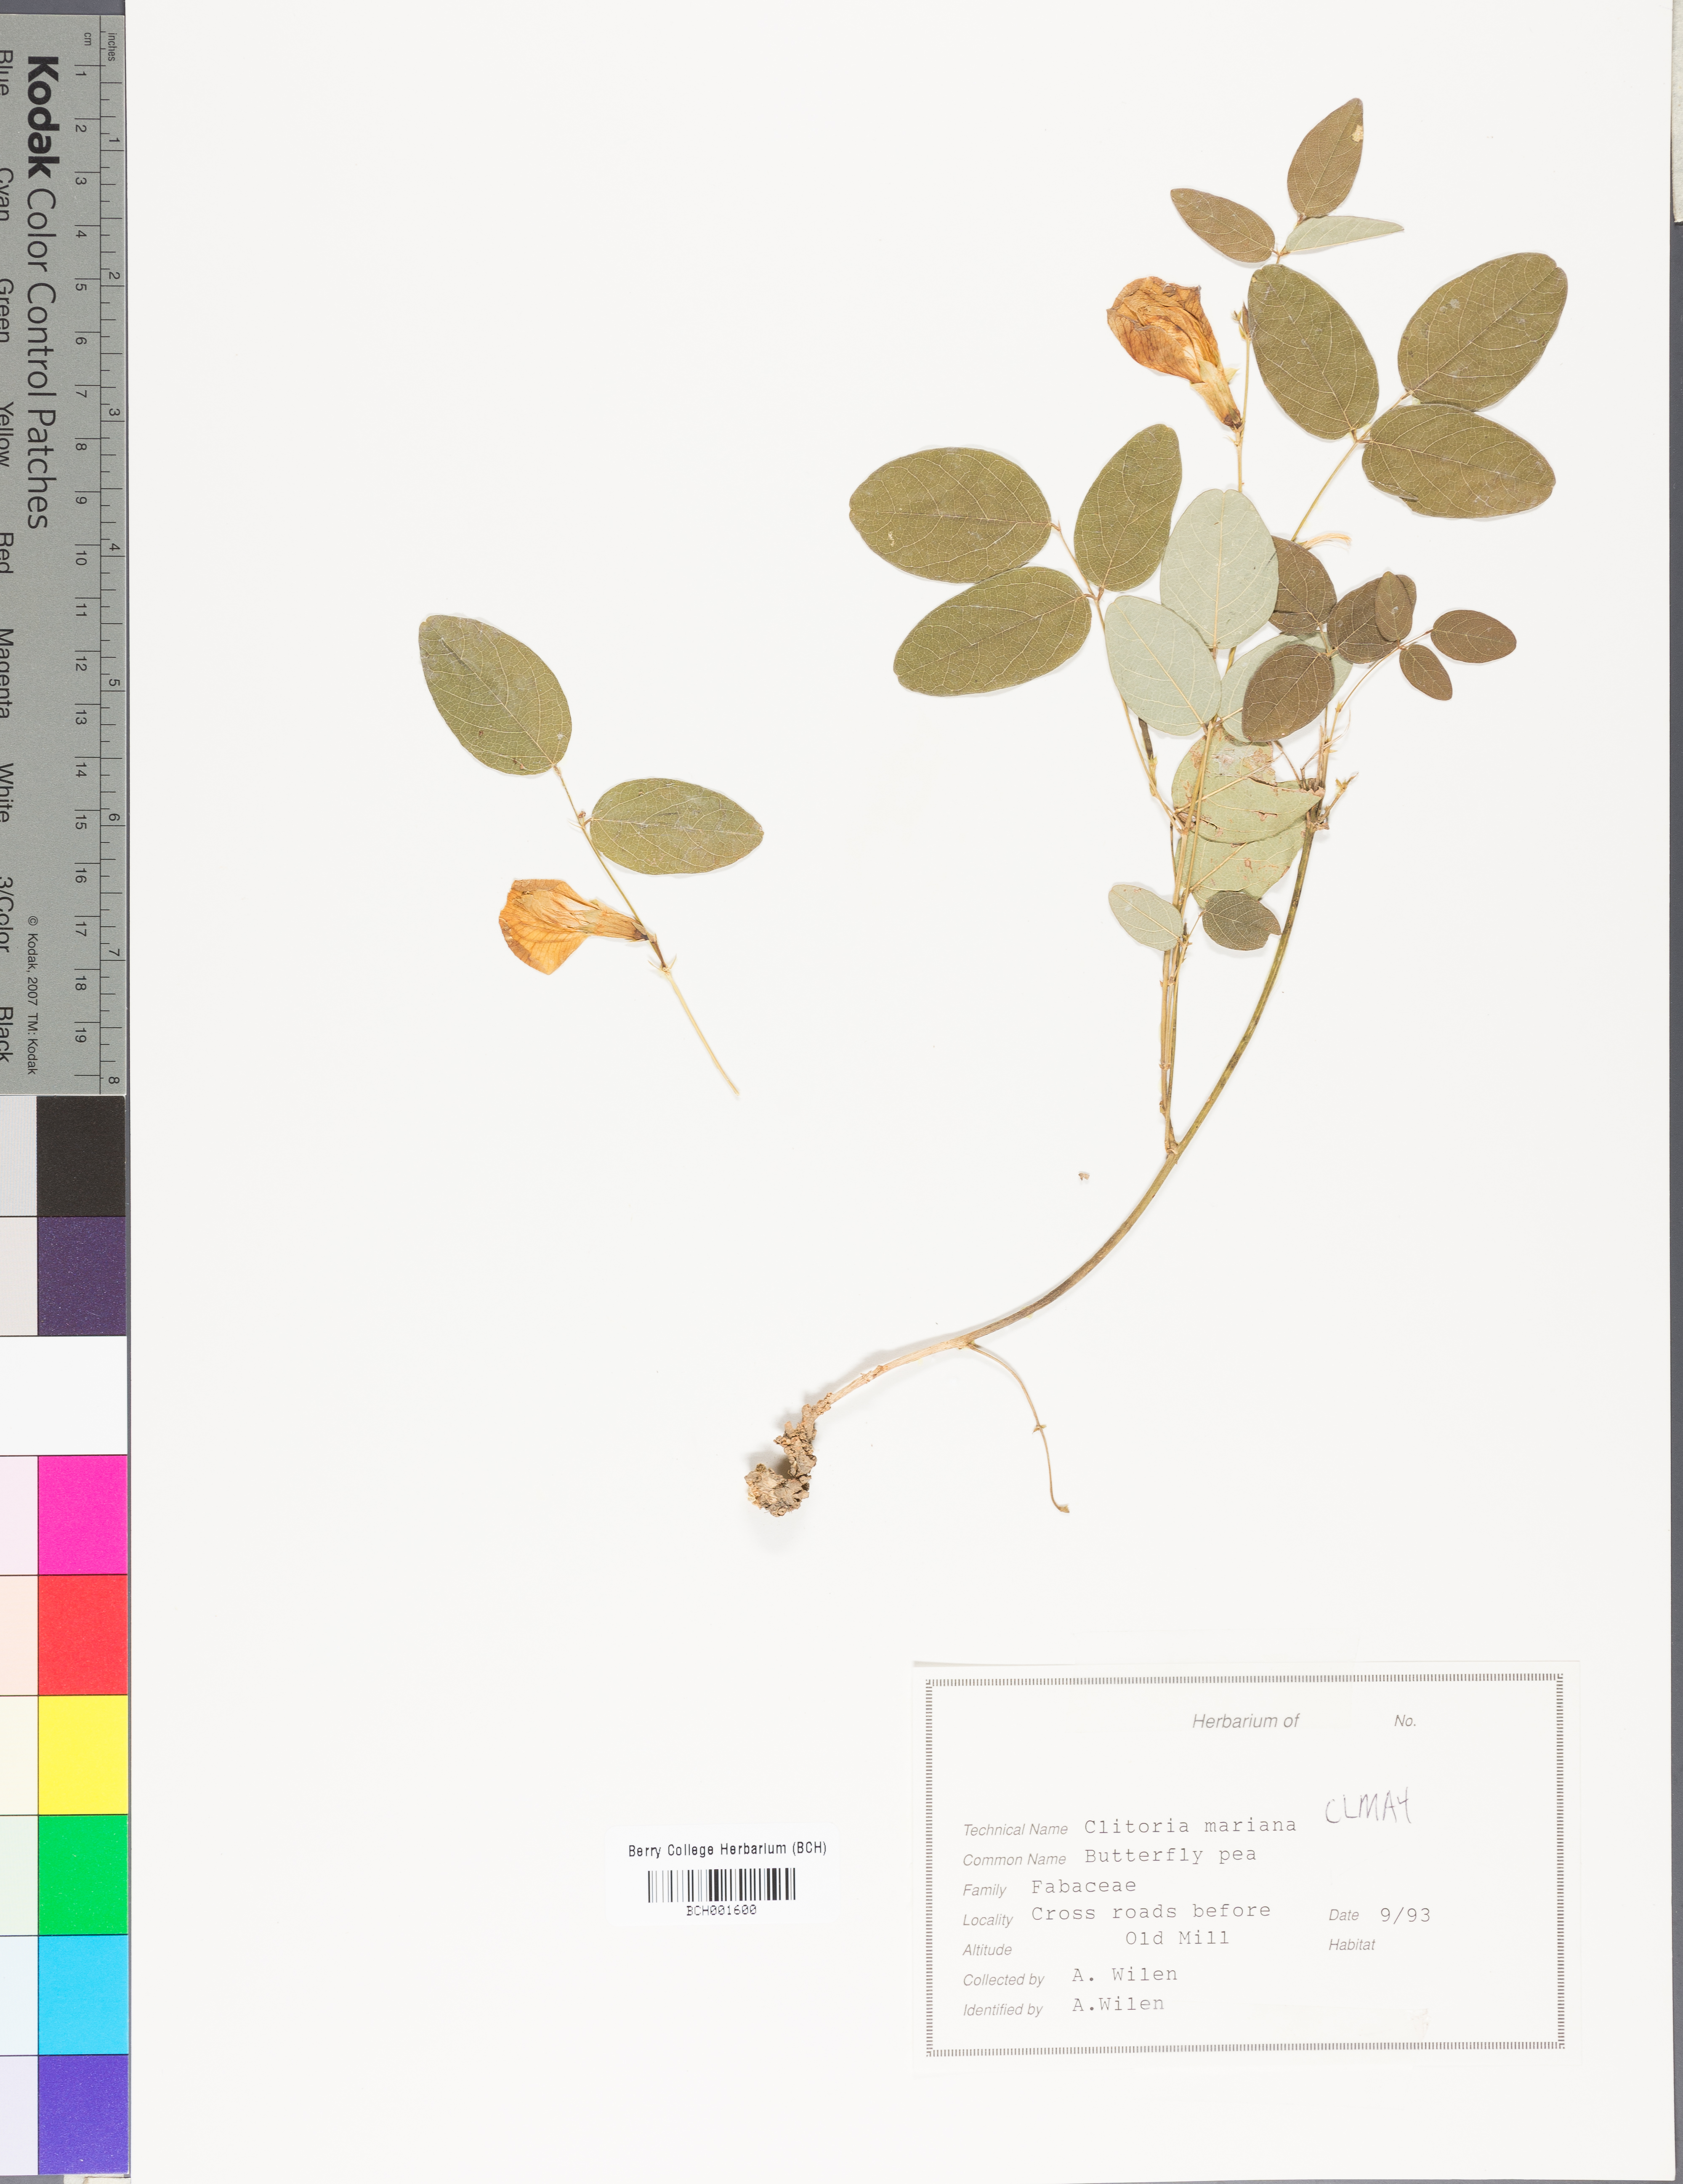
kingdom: Plantae
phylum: Tracheophyta
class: Magnoliopsida
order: Fabales
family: Fabaceae
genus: Clitoria
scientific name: Clitoria mariana
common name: Butterfly-pea
